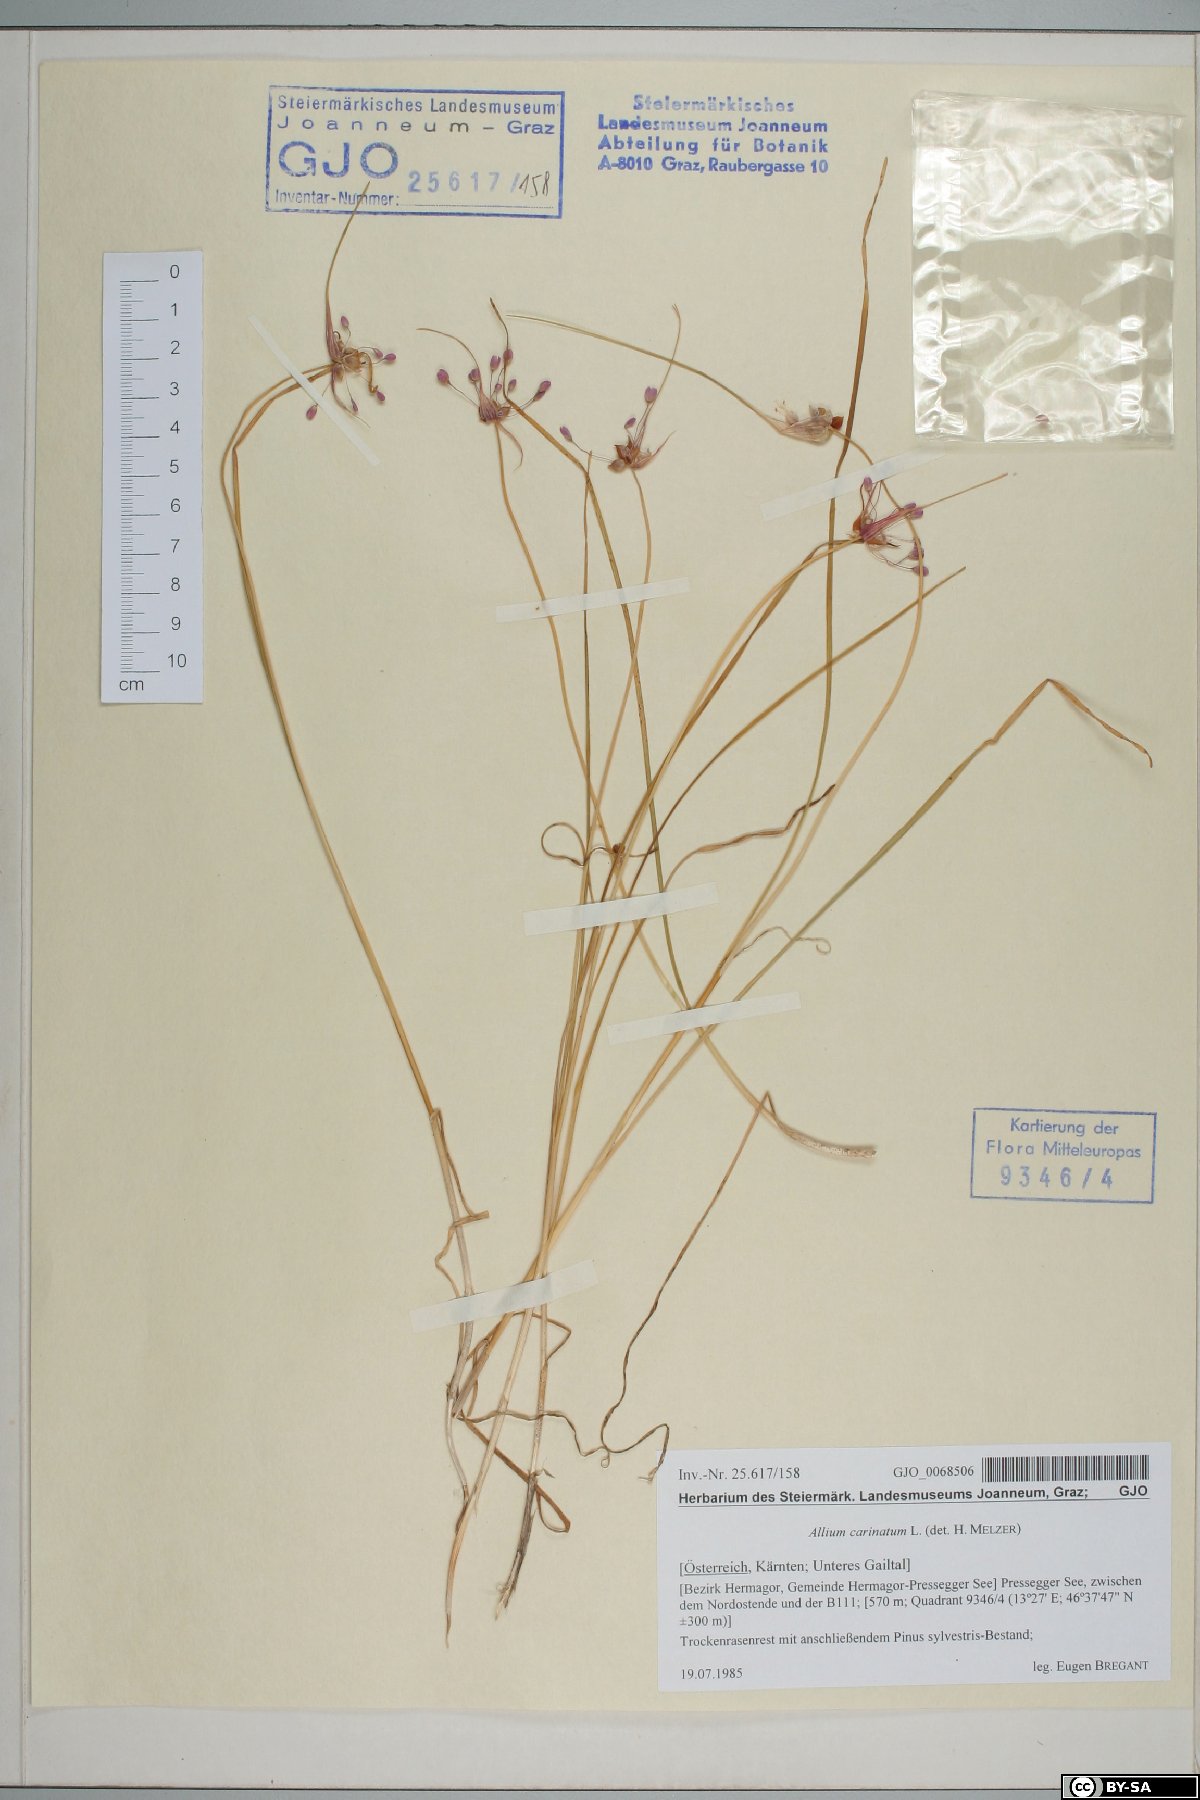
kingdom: Plantae
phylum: Tracheophyta
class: Liliopsida
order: Asparagales
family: Amaryllidaceae
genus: Allium
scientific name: Allium carinatum
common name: Keeled garlic
